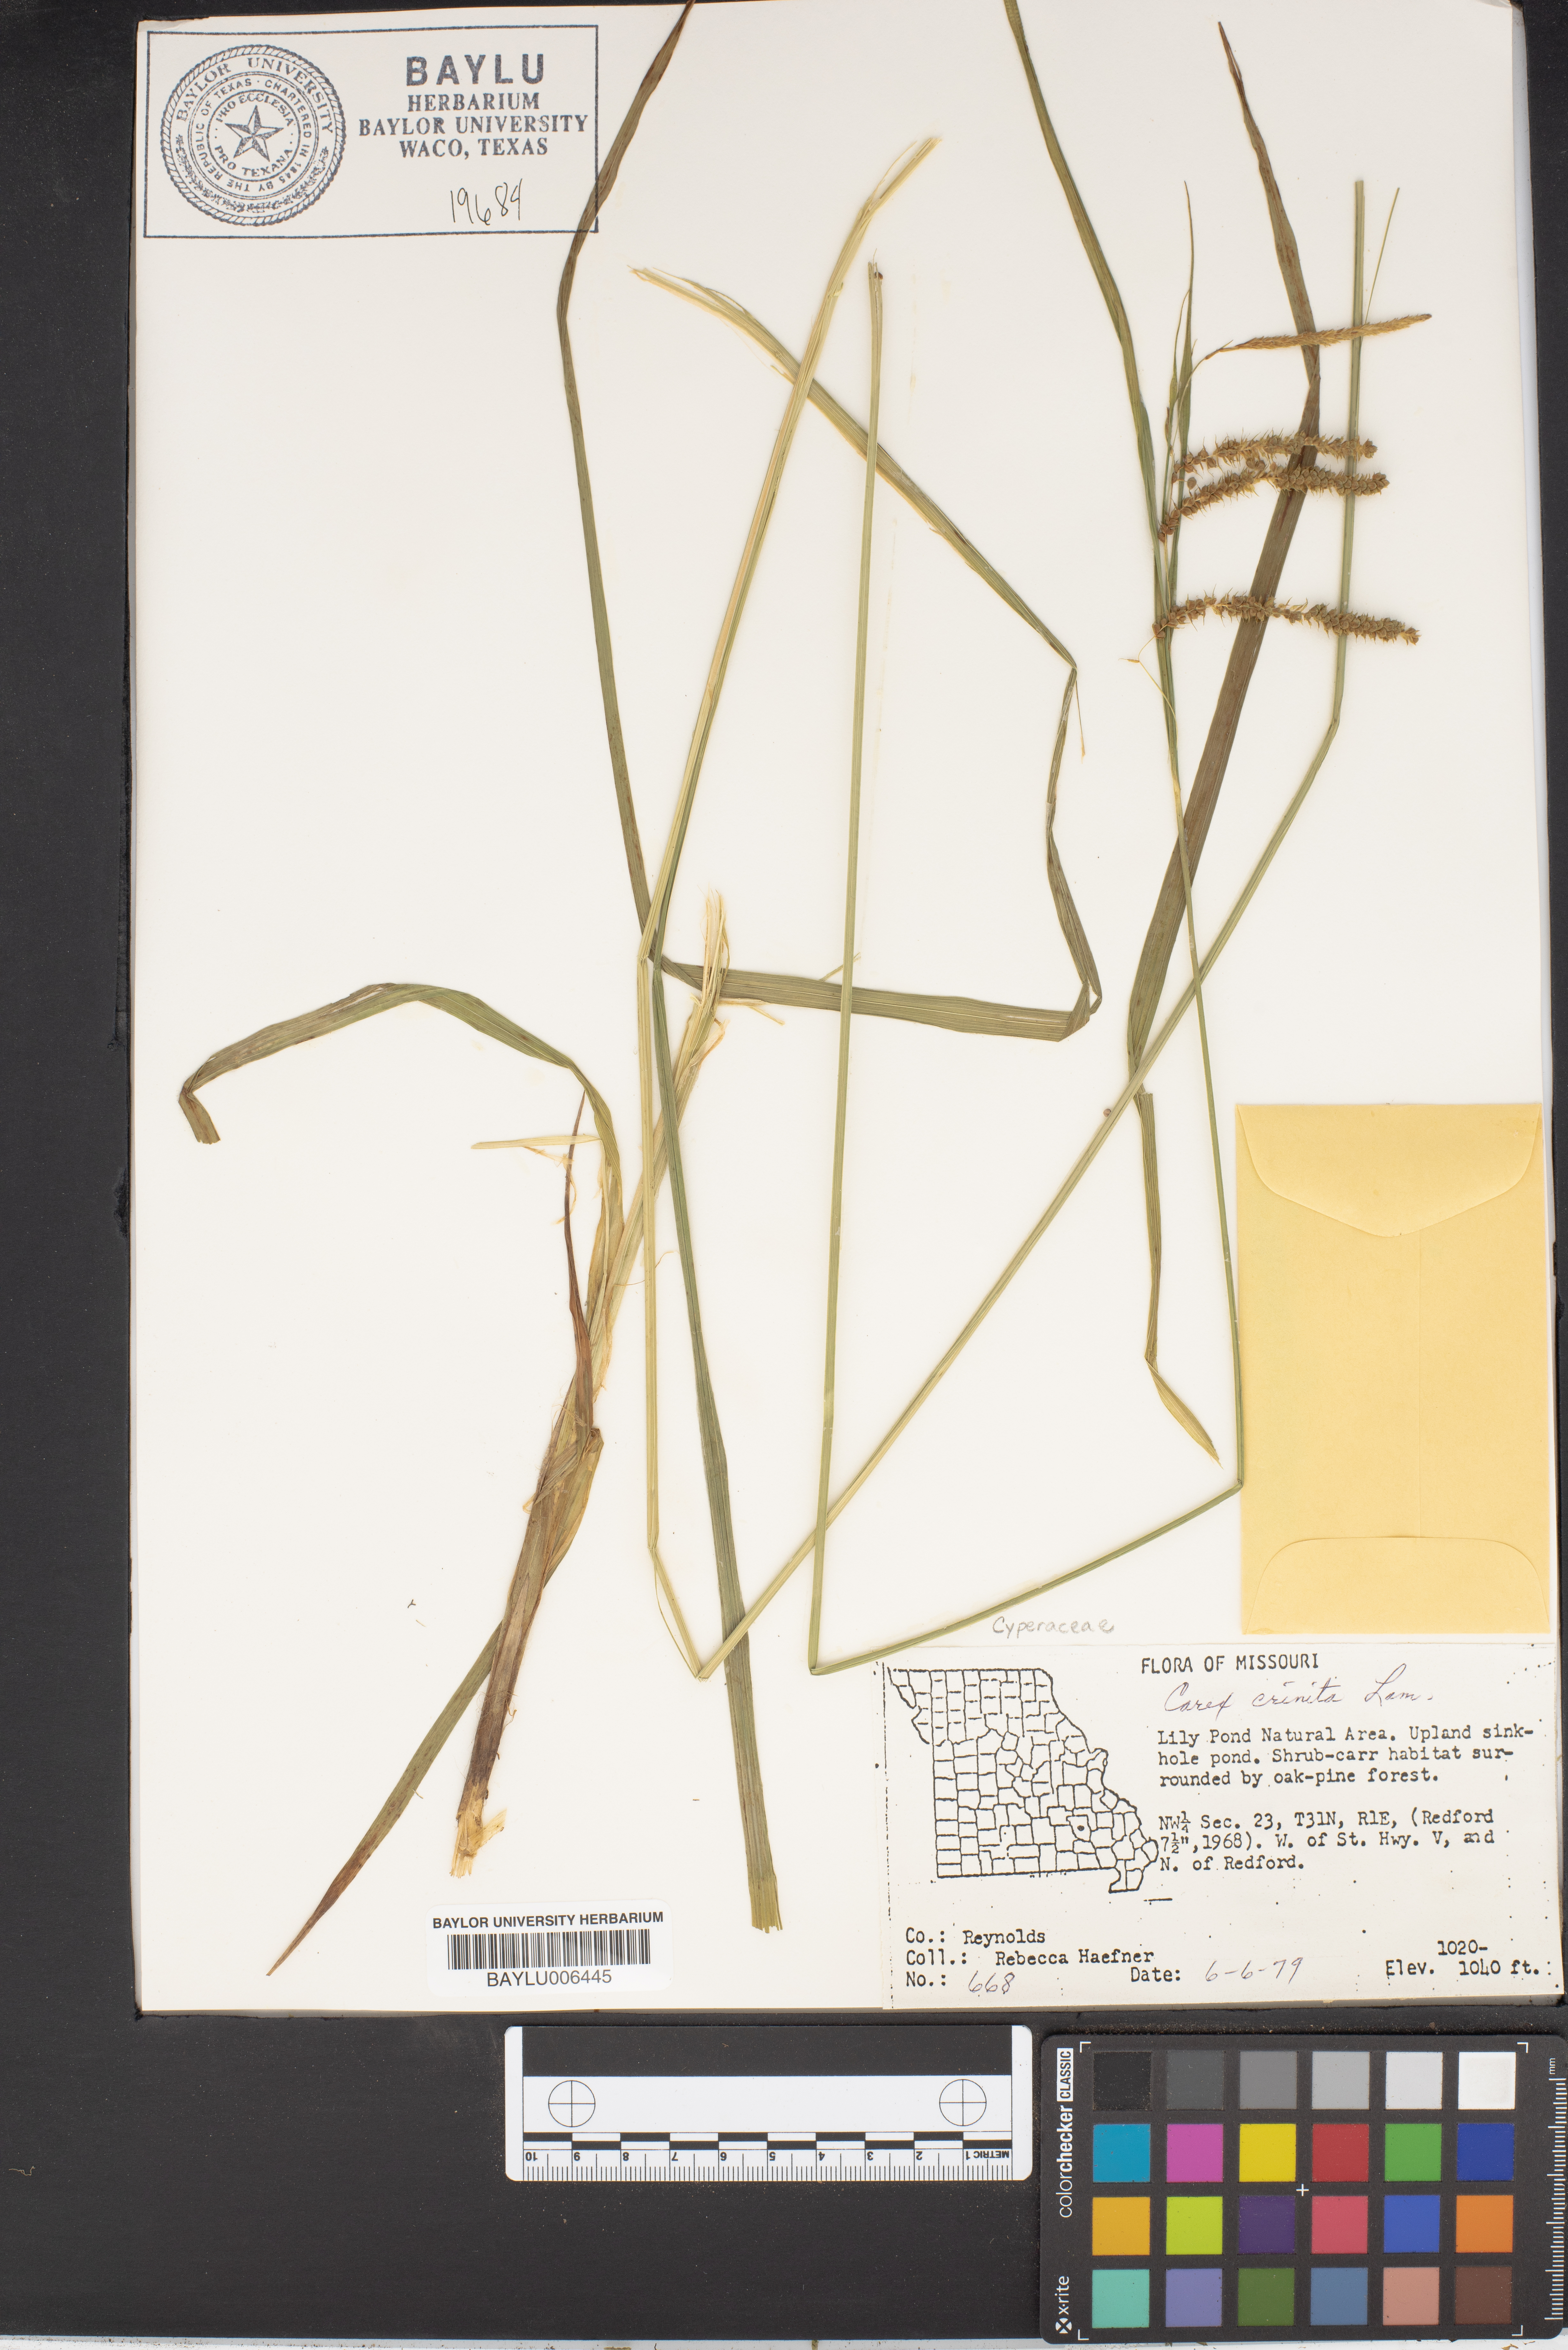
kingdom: Plantae
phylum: Tracheophyta
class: Liliopsida
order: Poales
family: Cyperaceae
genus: Carex
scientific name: Carex crinita
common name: Fringed sedge
